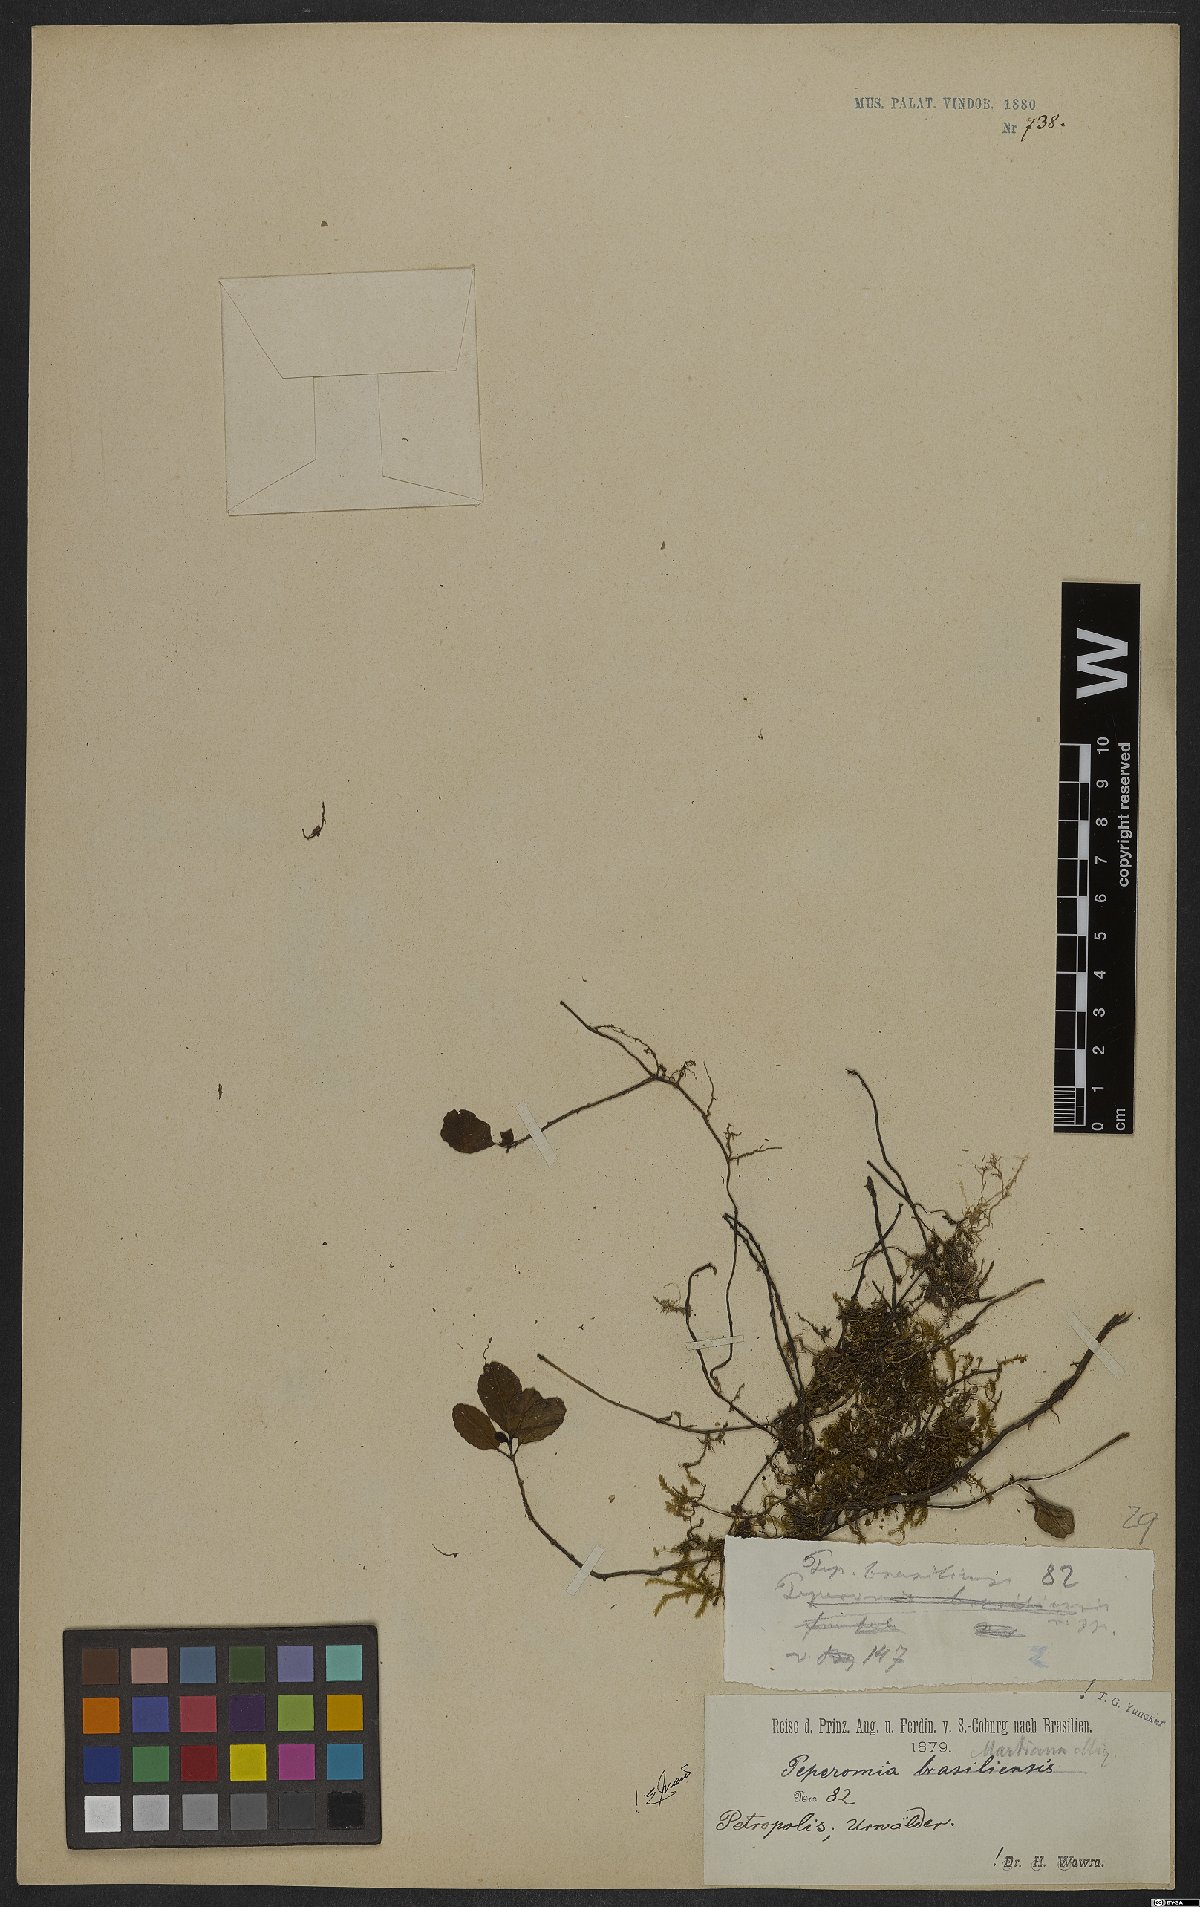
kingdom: Plantae
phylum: Tracheophyta
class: Magnoliopsida
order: Piperales
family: Piperaceae
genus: Peperomia
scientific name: Peperomia martiana
